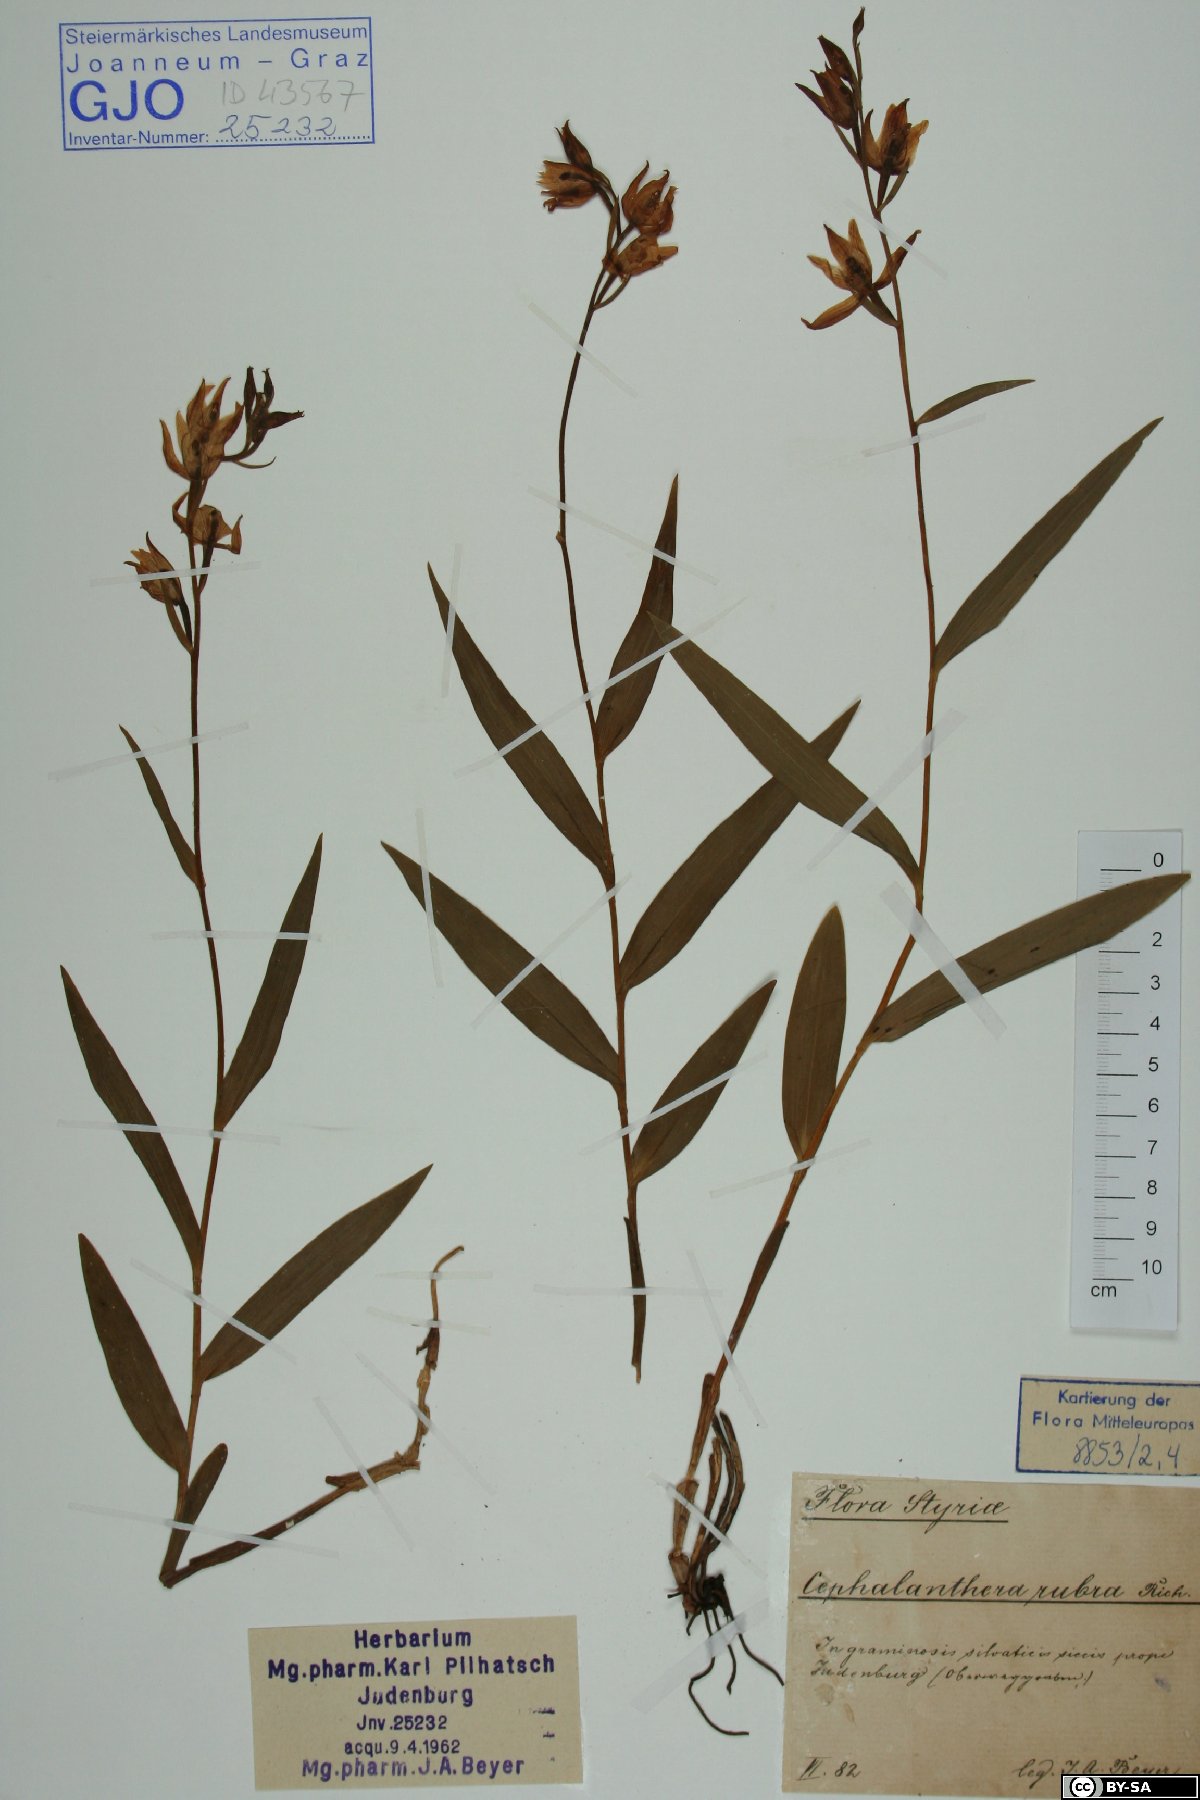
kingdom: Plantae
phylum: Tracheophyta
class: Liliopsida
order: Asparagales
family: Orchidaceae
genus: Cephalanthera
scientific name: Cephalanthera rubra
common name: Red helleborine
